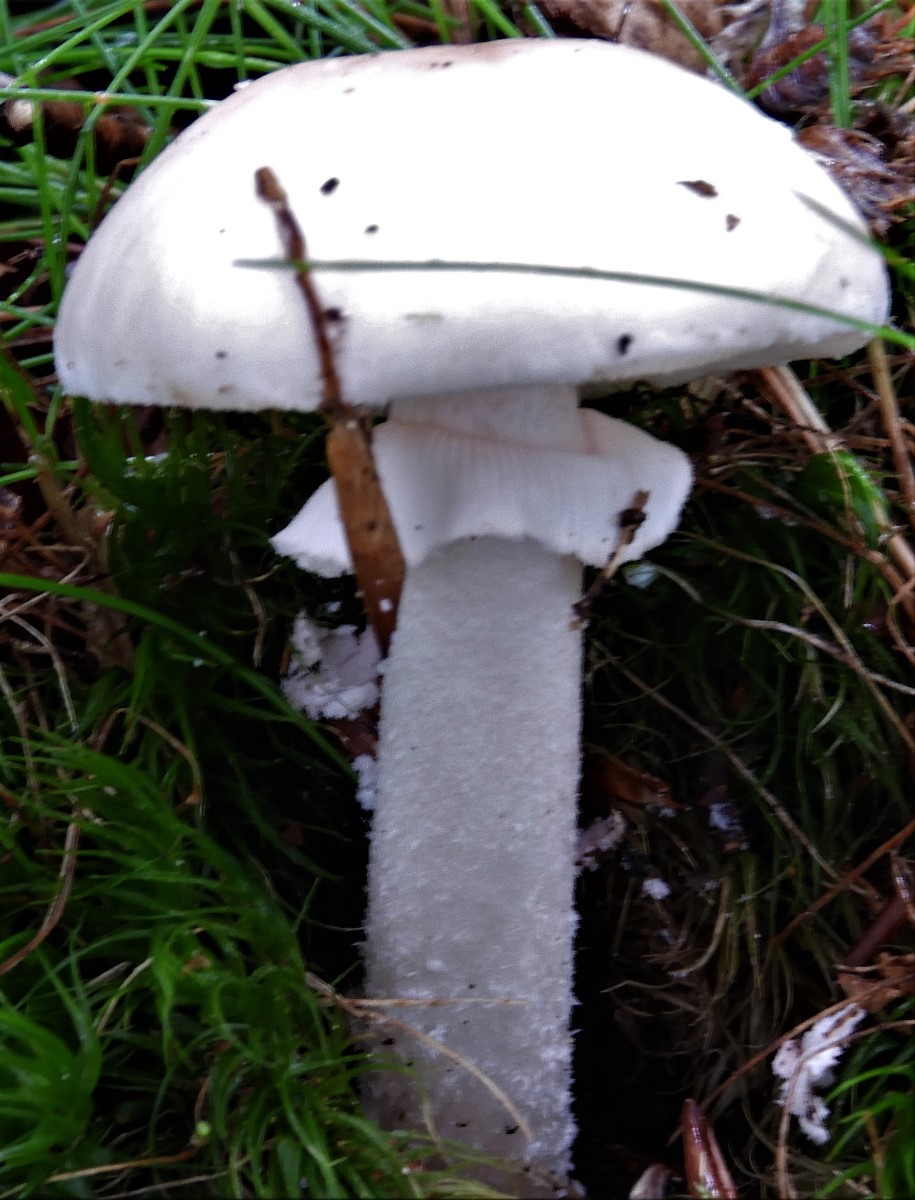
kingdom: Fungi
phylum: Basidiomycota
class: Agaricomycetes
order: Agaricales
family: Amanitaceae
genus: Amanita
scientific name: Amanita
